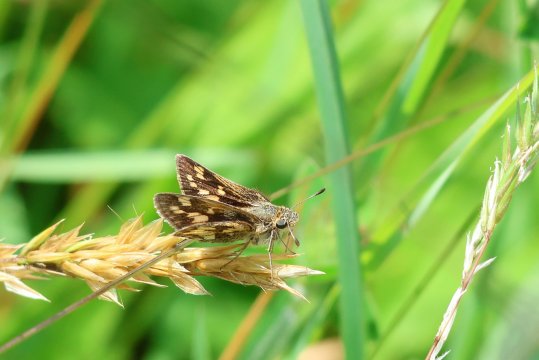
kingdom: Animalia
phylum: Arthropoda
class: Insecta
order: Lepidoptera
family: Hesperiidae
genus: Polites
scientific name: Polites coras
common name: Peck's Skipper
